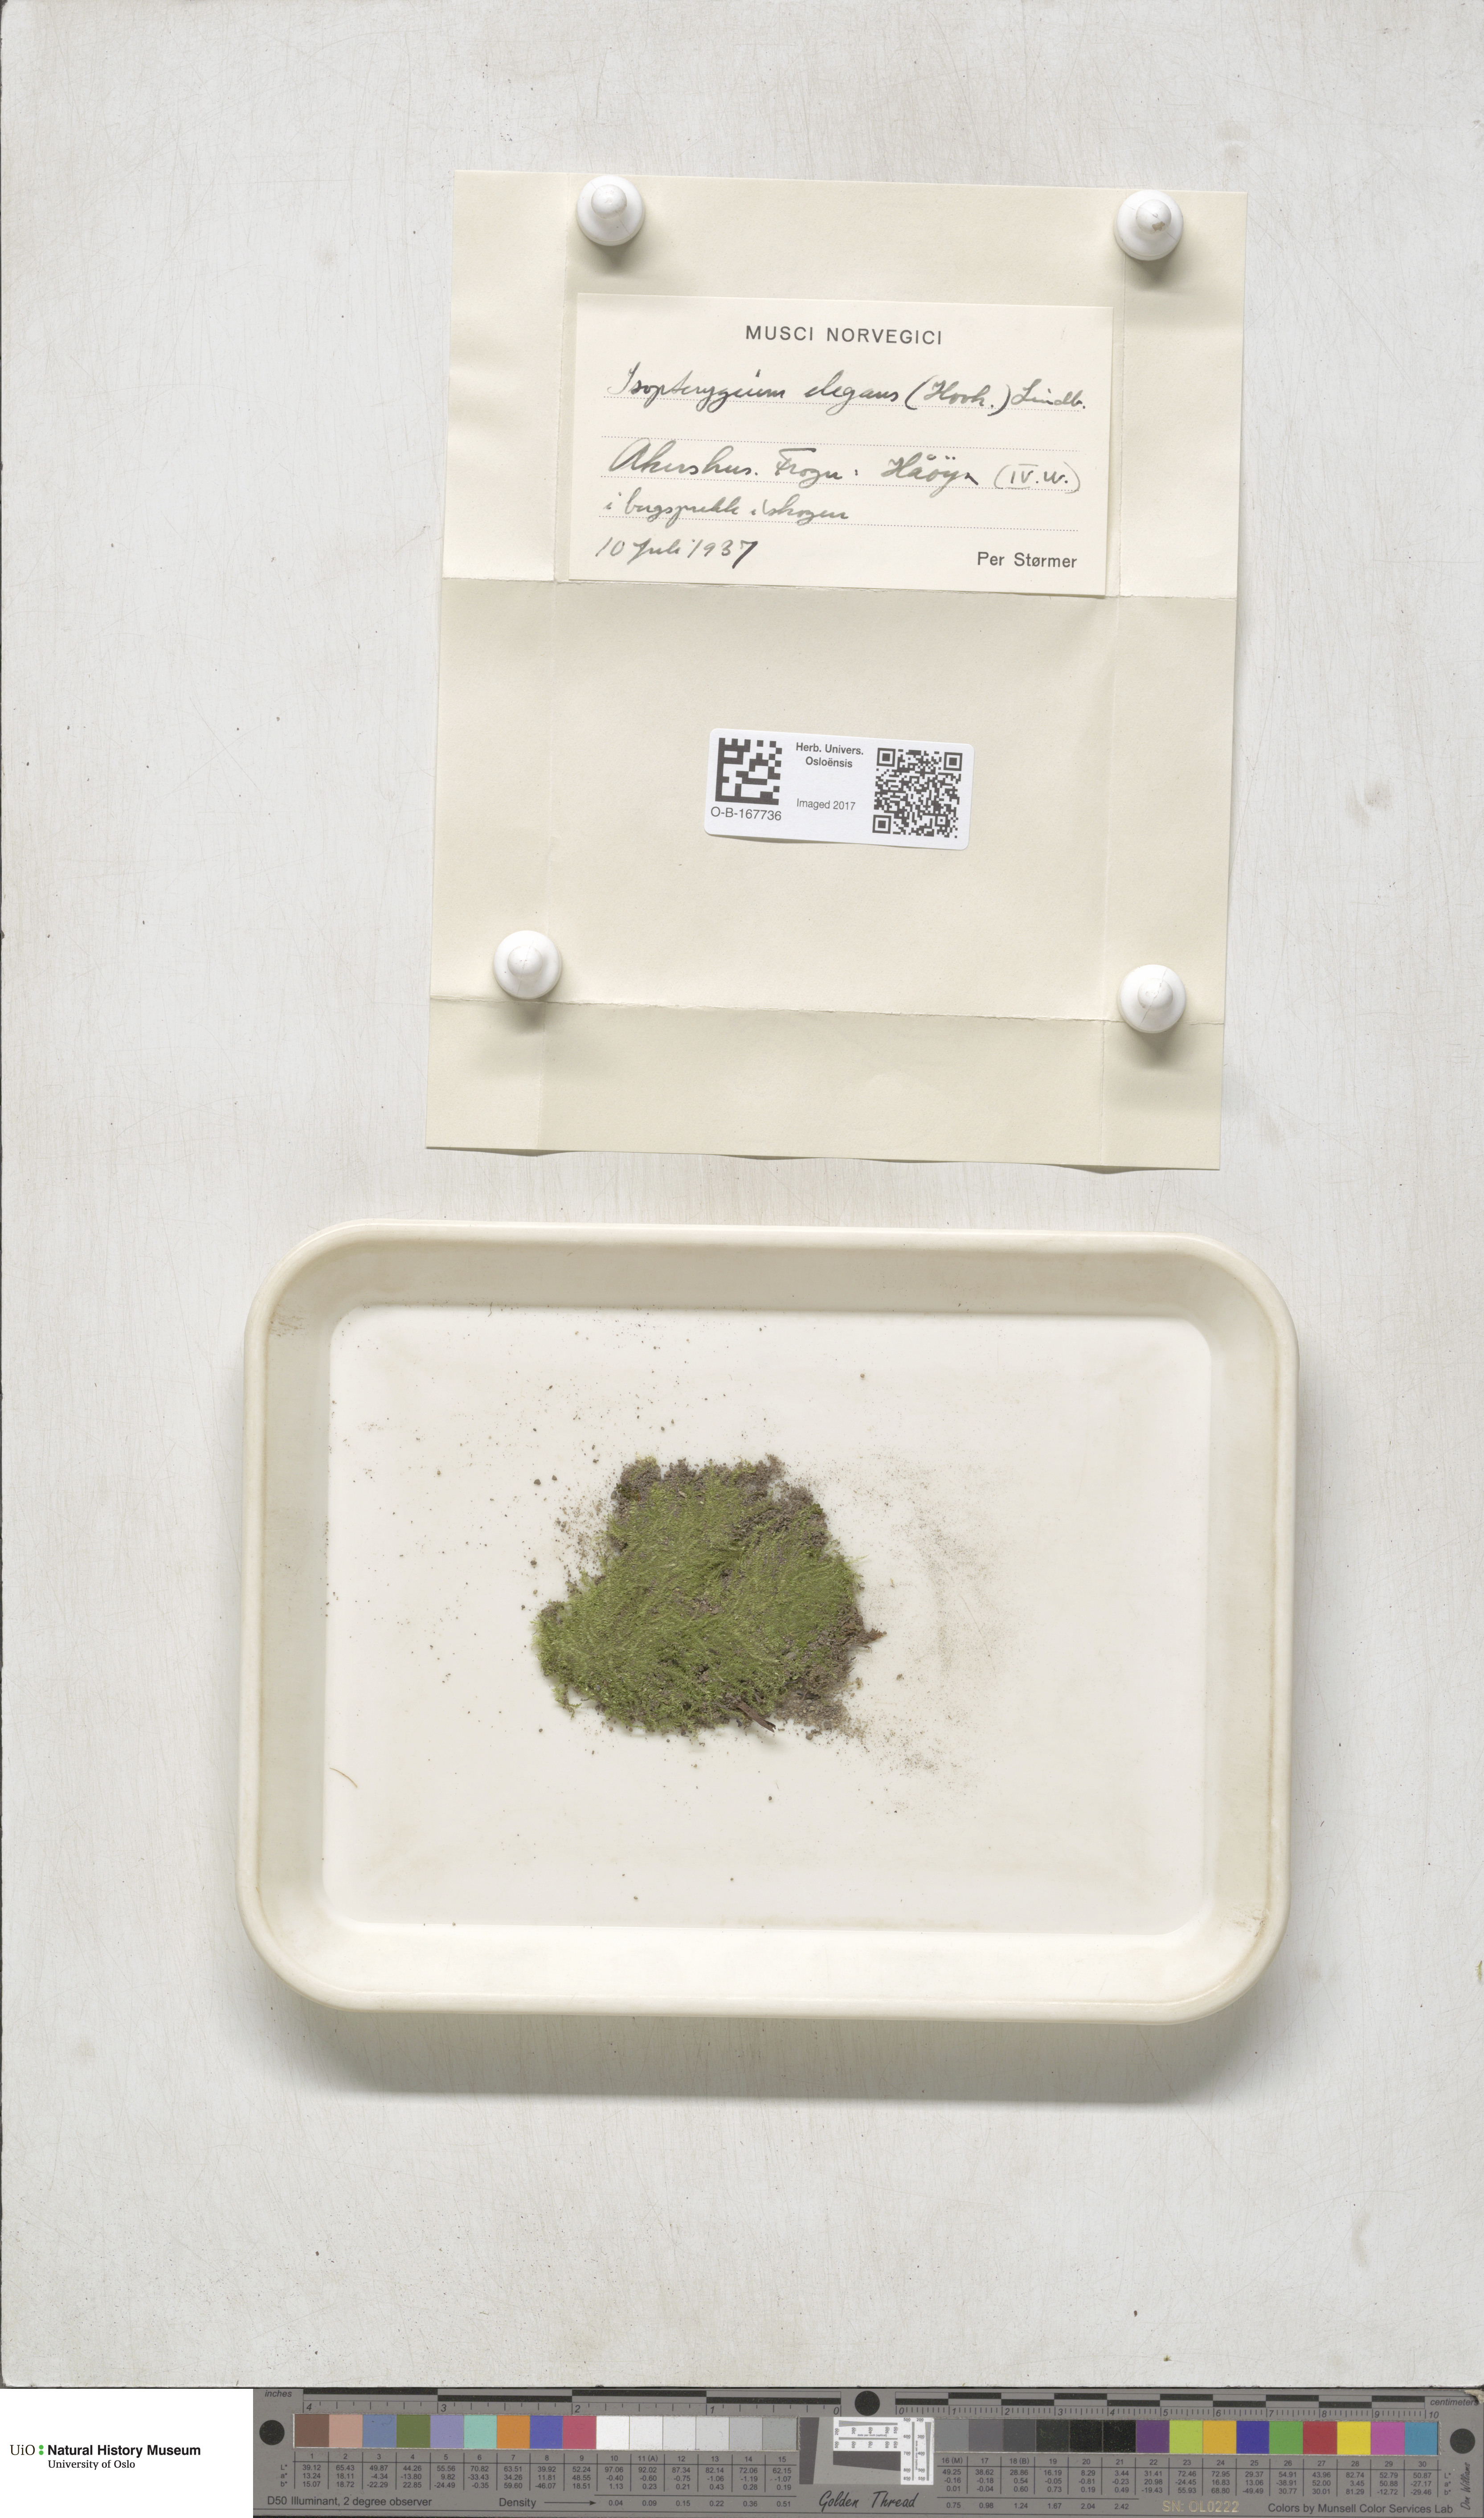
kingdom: Plantae
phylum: Bryophyta
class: Bryopsida
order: Hypnales
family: Plagiotheciaceae
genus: Pseudotaxiphyllum
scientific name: Pseudotaxiphyllum elegans
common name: Elegant silk moss
